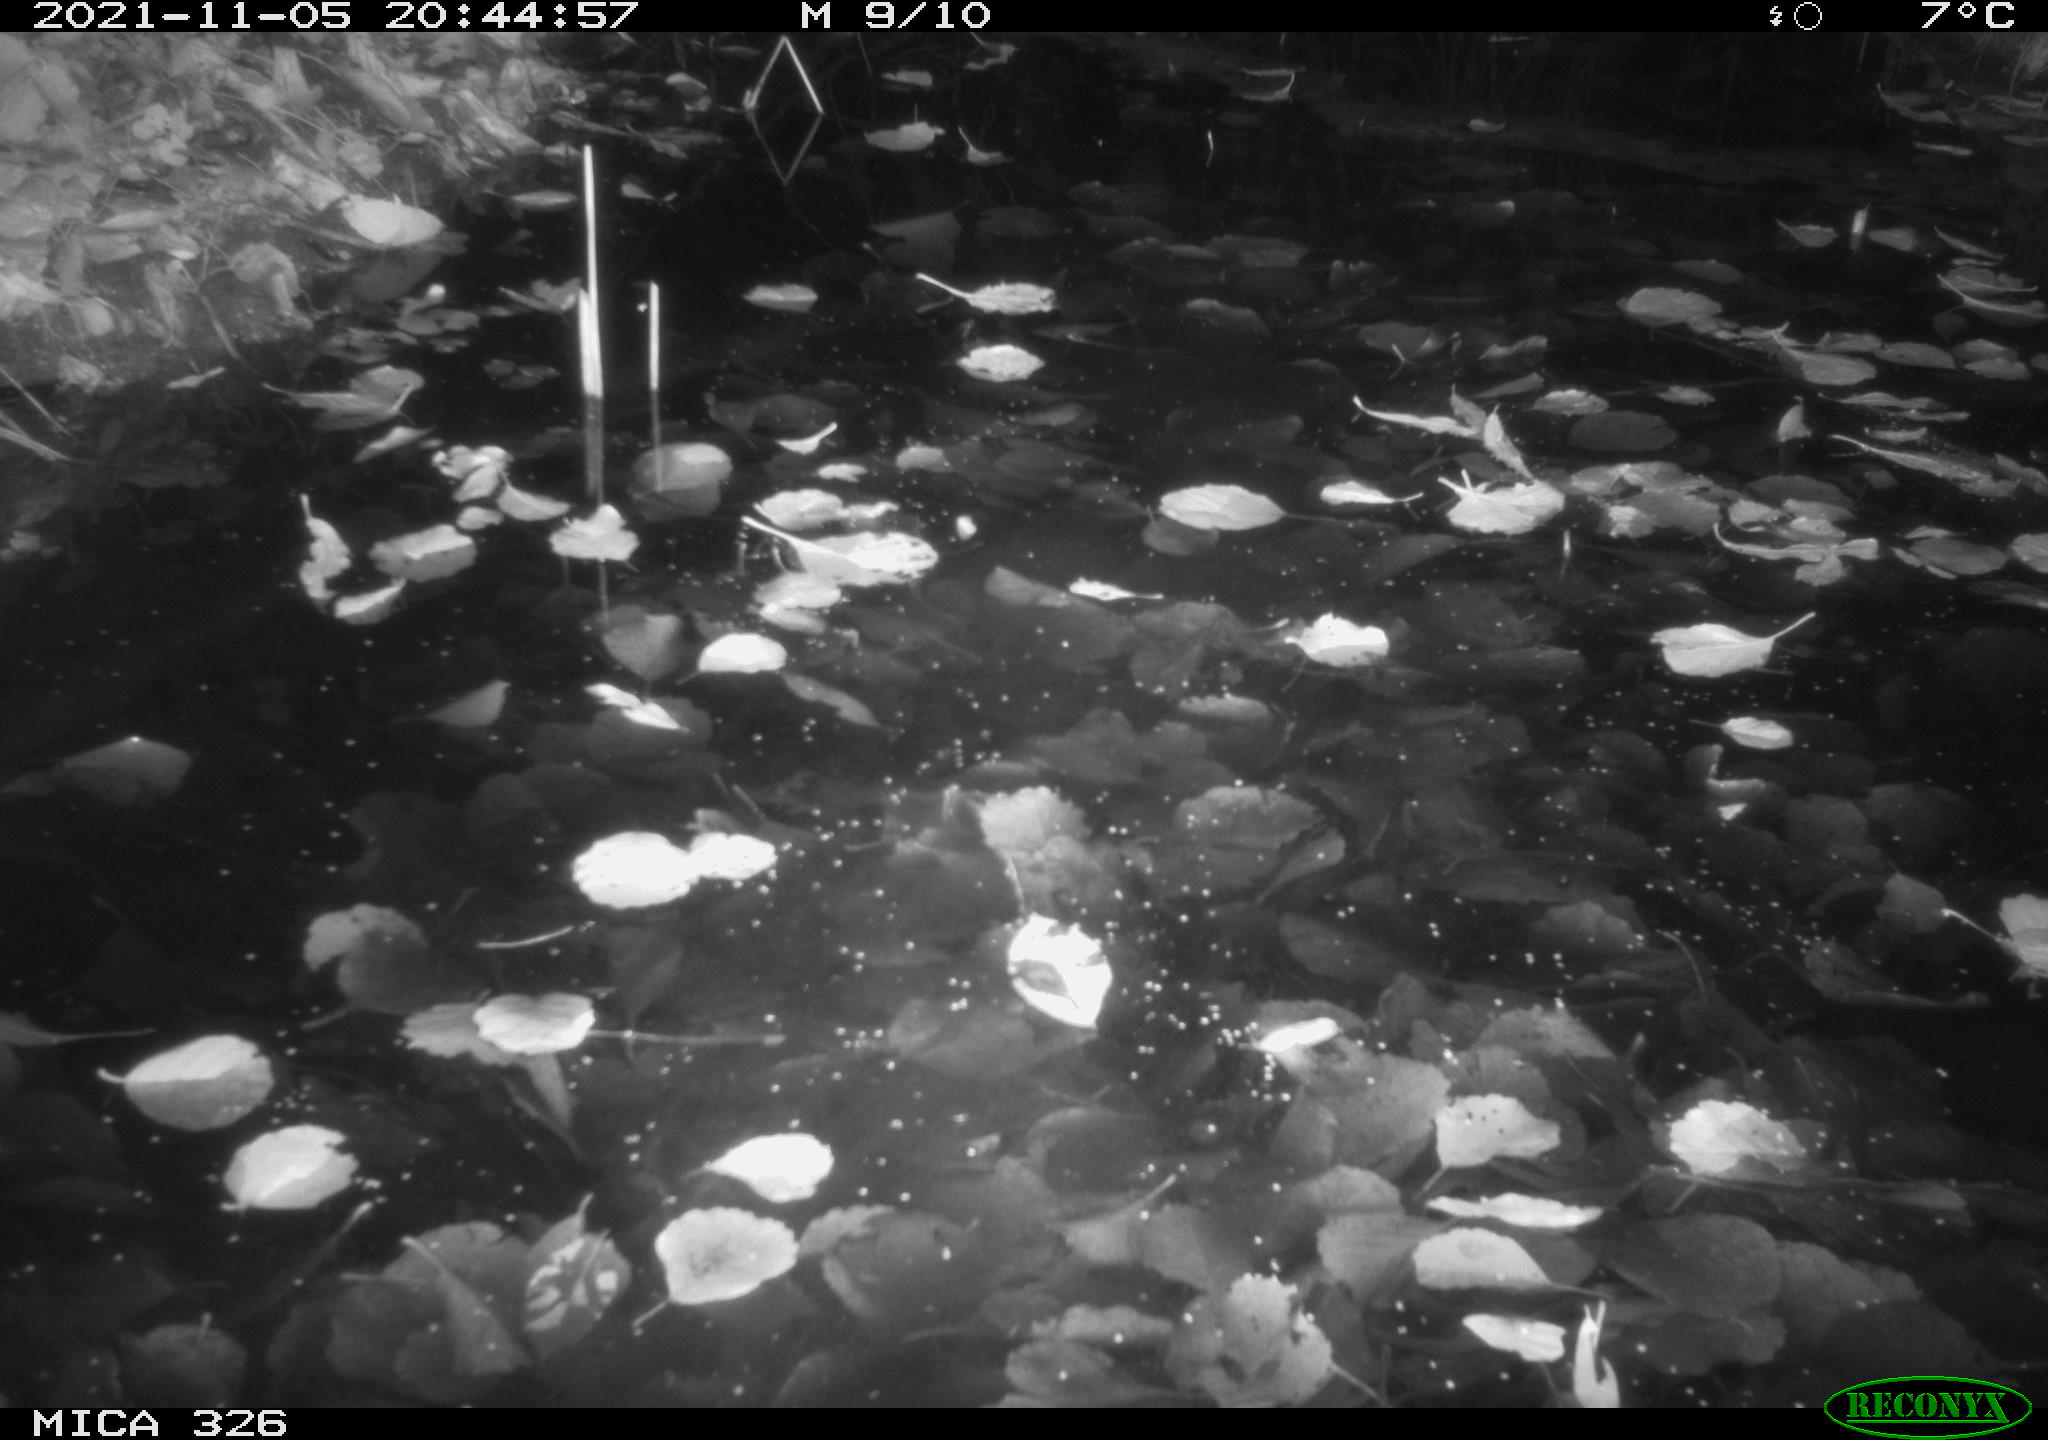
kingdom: Animalia
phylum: Chordata
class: Mammalia
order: Rodentia
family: Myocastoridae
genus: Myocastor
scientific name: Myocastor coypus
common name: Coypu
